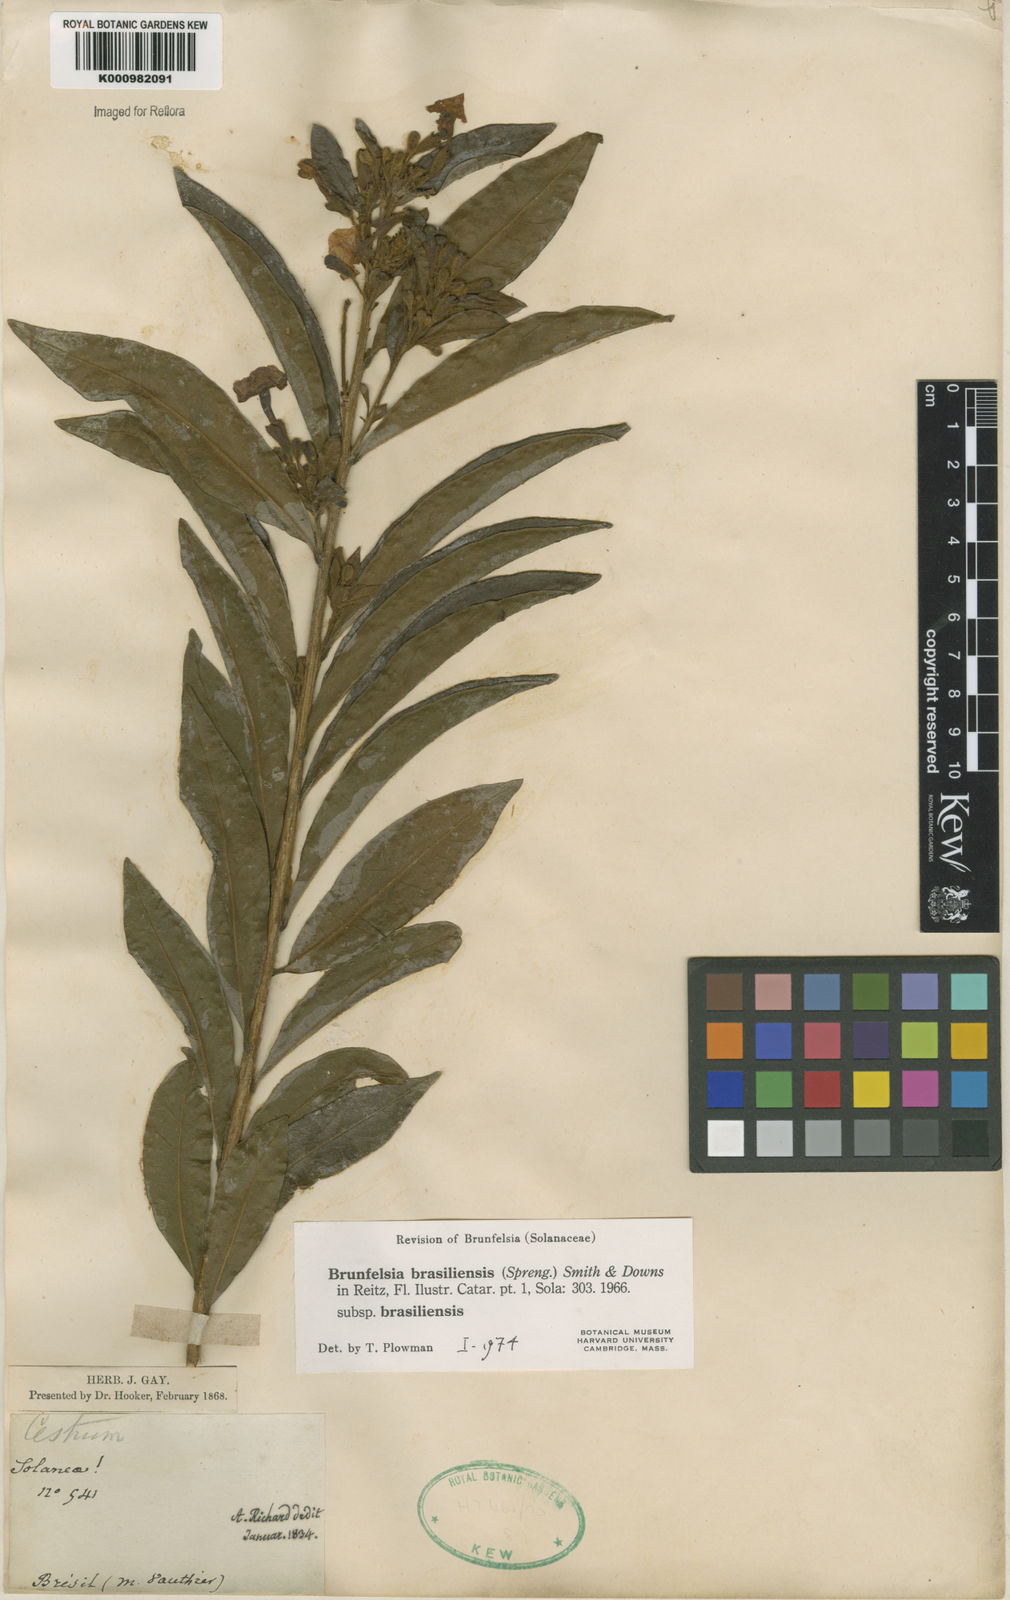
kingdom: Plantae
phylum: Tracheophyta
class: Magnoliopsida
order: Solanales
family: Solanaceae
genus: Brunfelsia
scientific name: Brunfelsia brasiliensis
